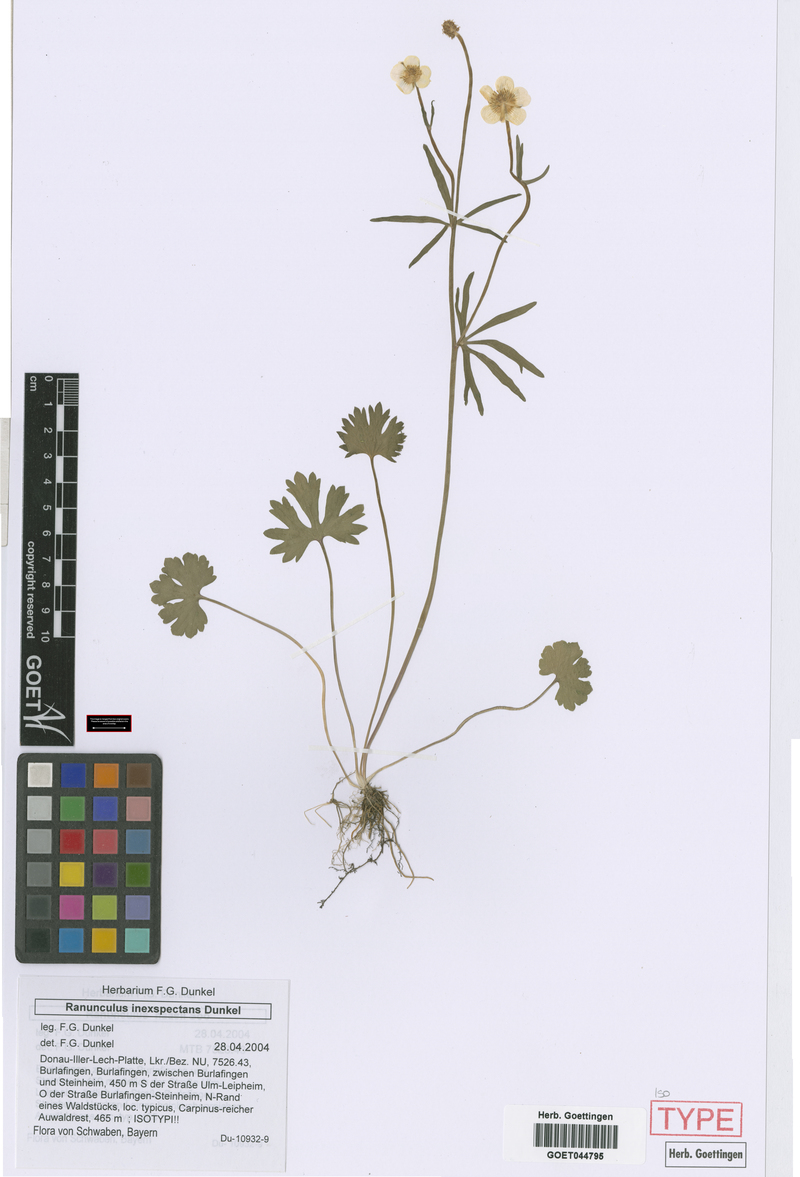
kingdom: Plantae
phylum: Tracheophyta
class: Magnoliopsida
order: Ranunculales
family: Ranunculaceae
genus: Ranunculus
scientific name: Ranunculus inexspectans
